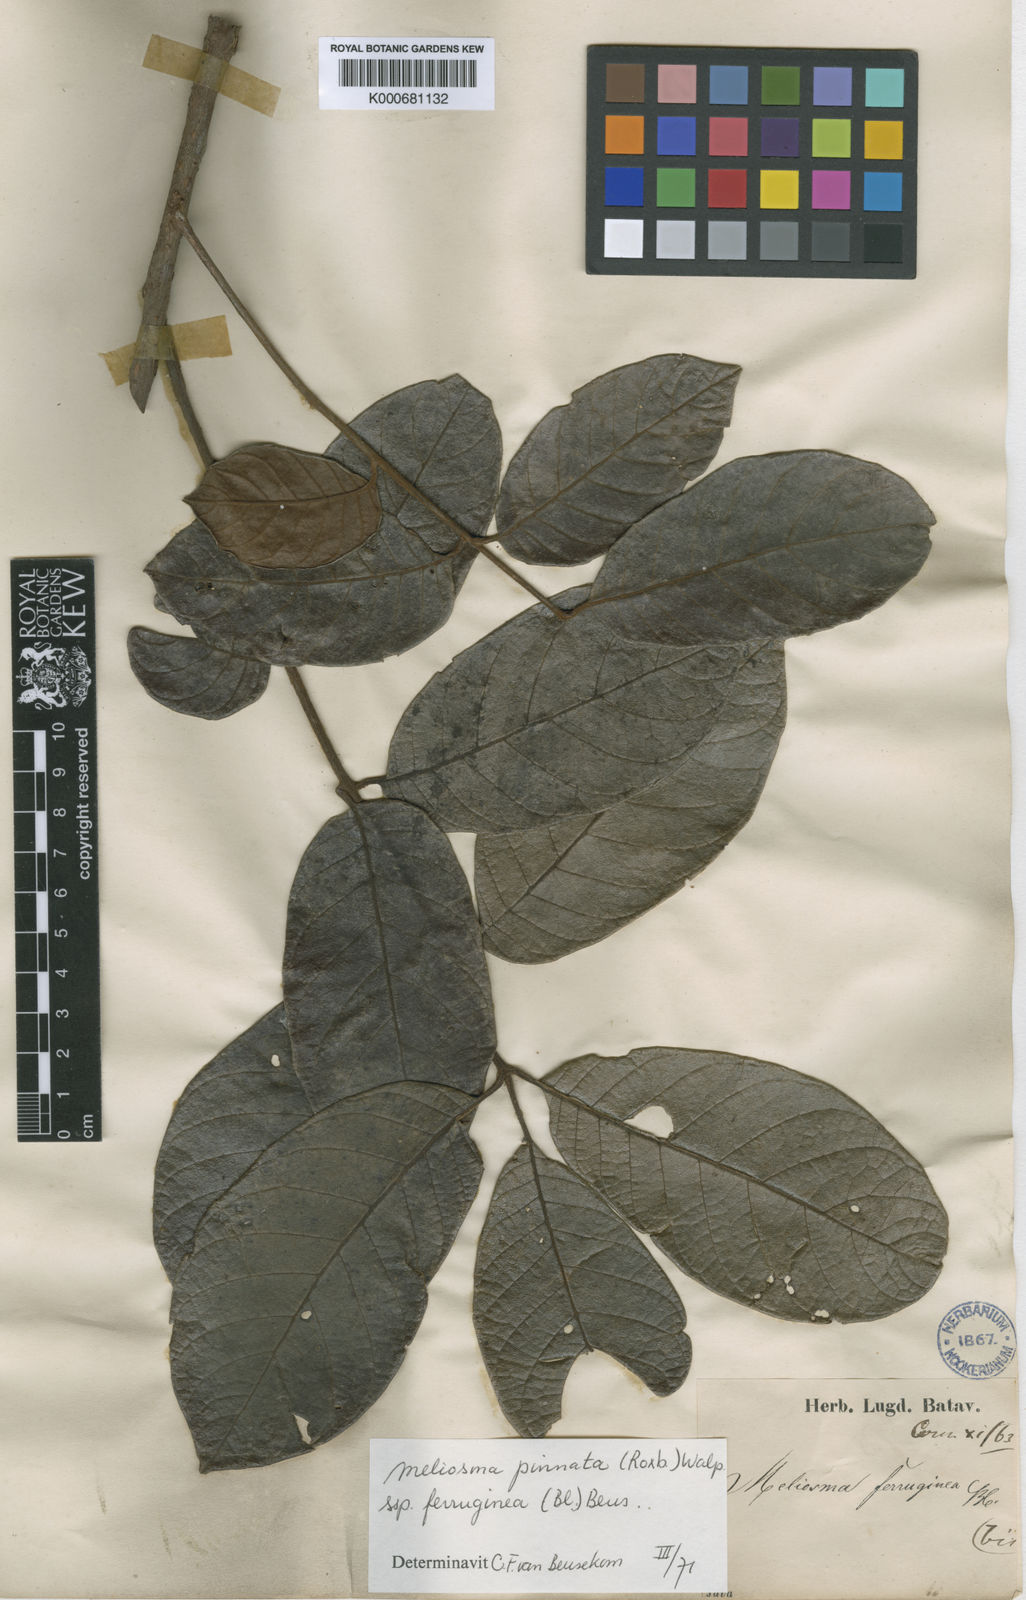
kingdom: Plantae
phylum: Tracheophyta
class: Magnoliopsida
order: Proteales
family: Sabiaceae
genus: Meliosma
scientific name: Meliosma pinnata
